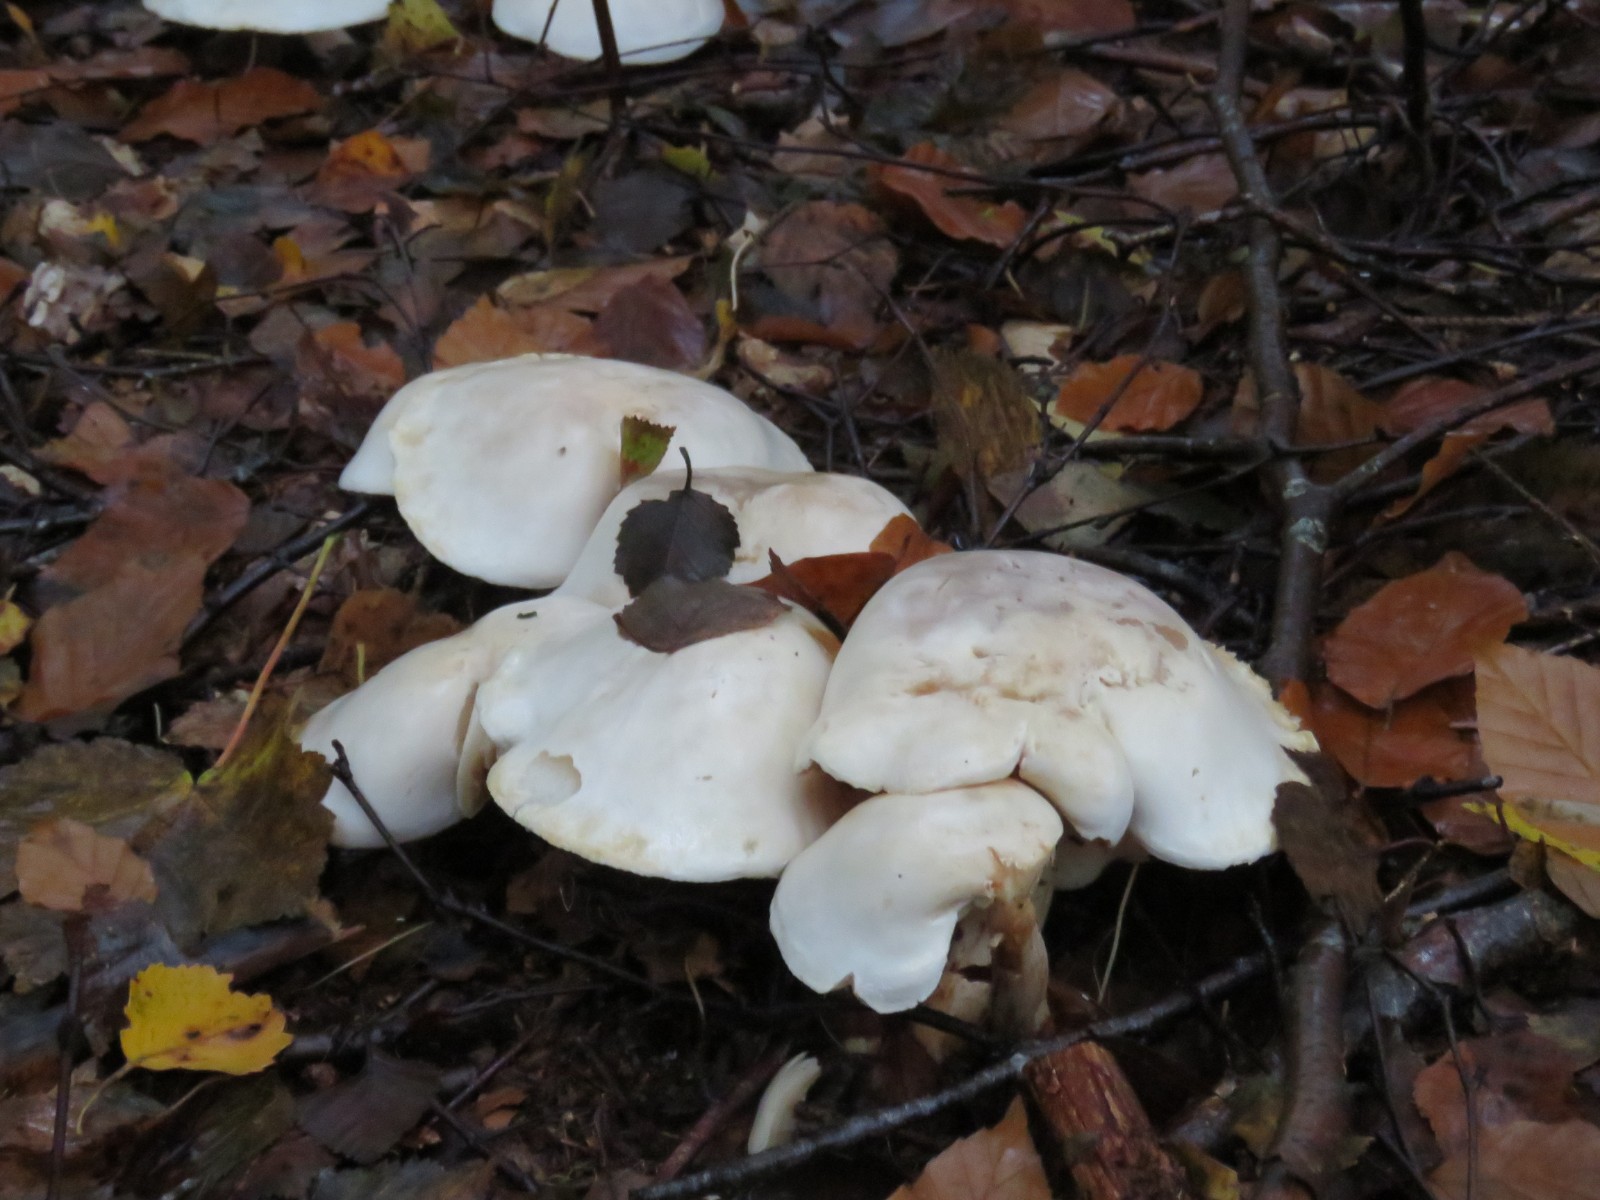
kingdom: Fungi
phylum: Basidiomycota
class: Agaricomycetes
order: Agaricales
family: Tricholomataceae
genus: Tricholoma
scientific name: Tricholoma stiparophyllum
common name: hvid ridderhat
